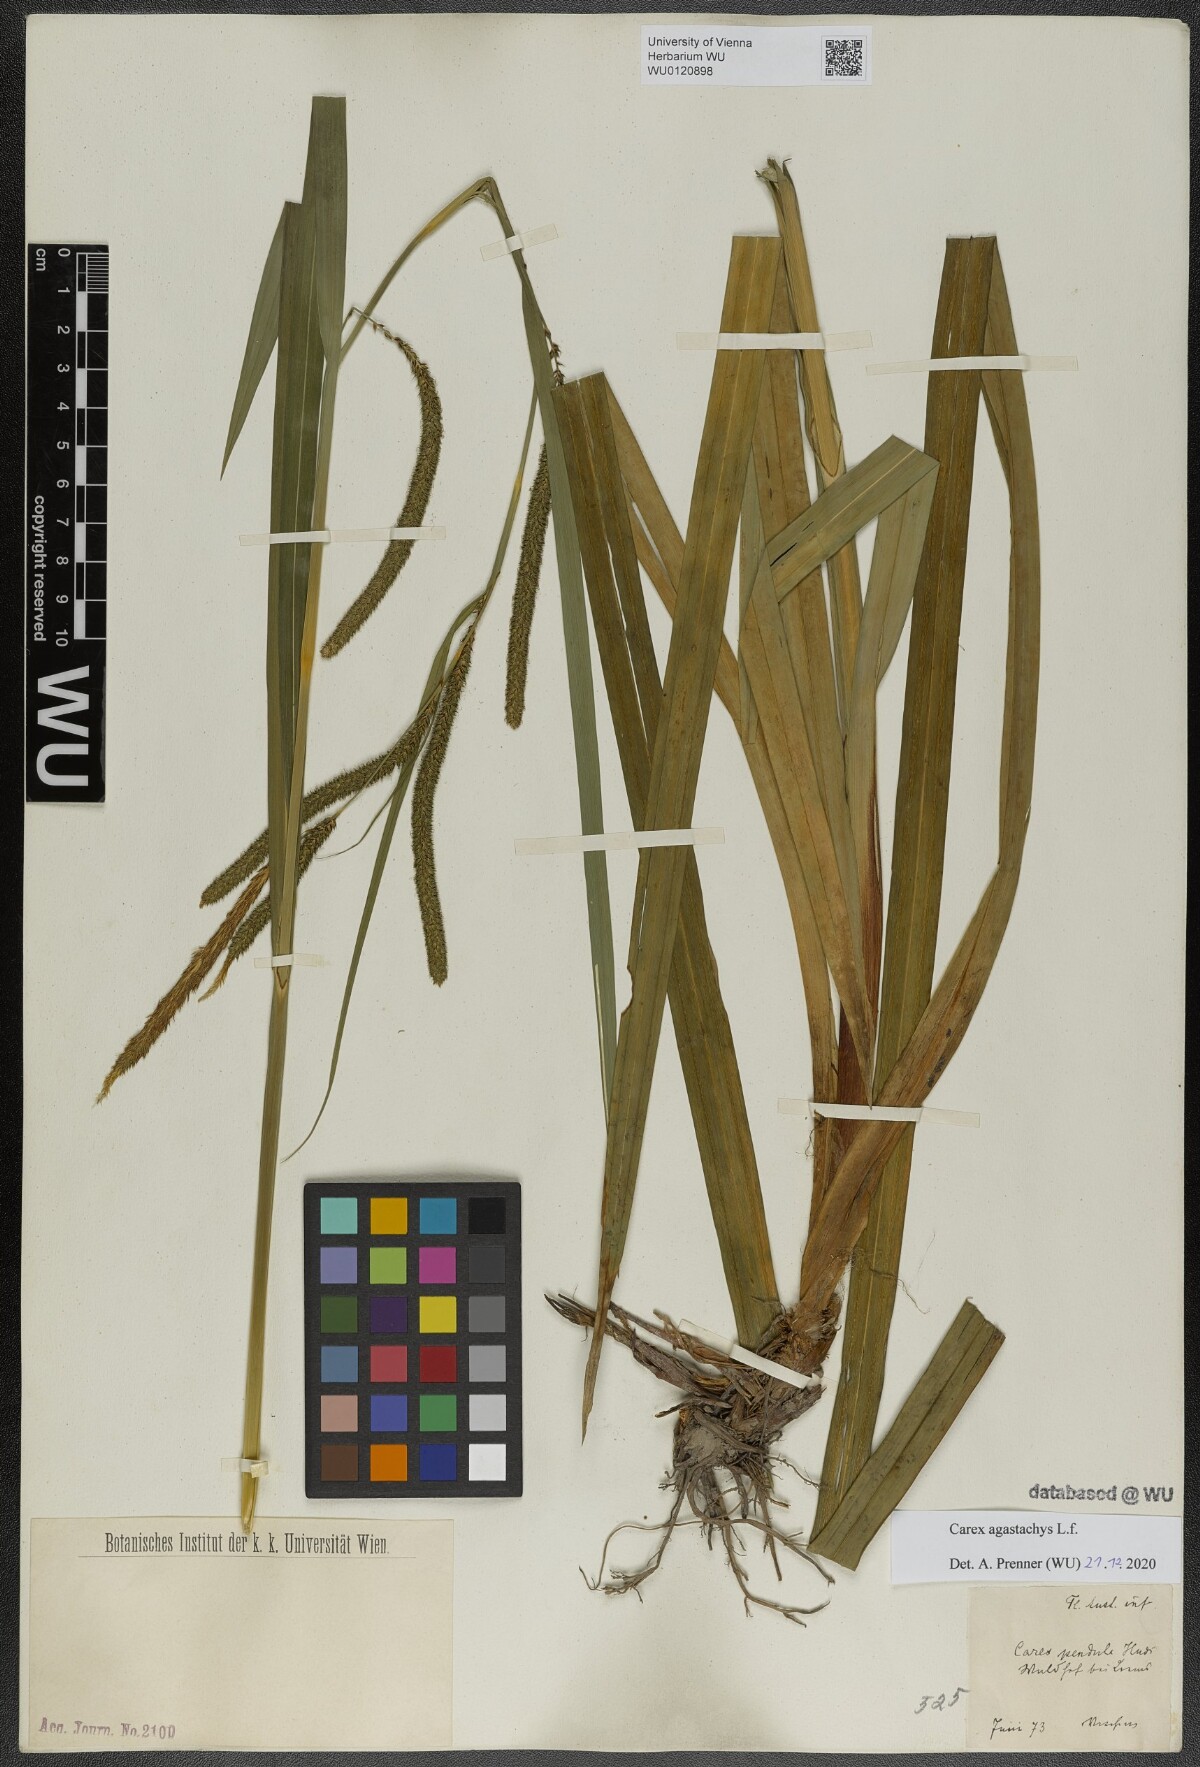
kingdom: Plantae
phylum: Tracheophyta
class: Liliopsida
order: Poales
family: Cyperaceae
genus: Carex
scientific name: Carex pendula
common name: Pendulous sedge
